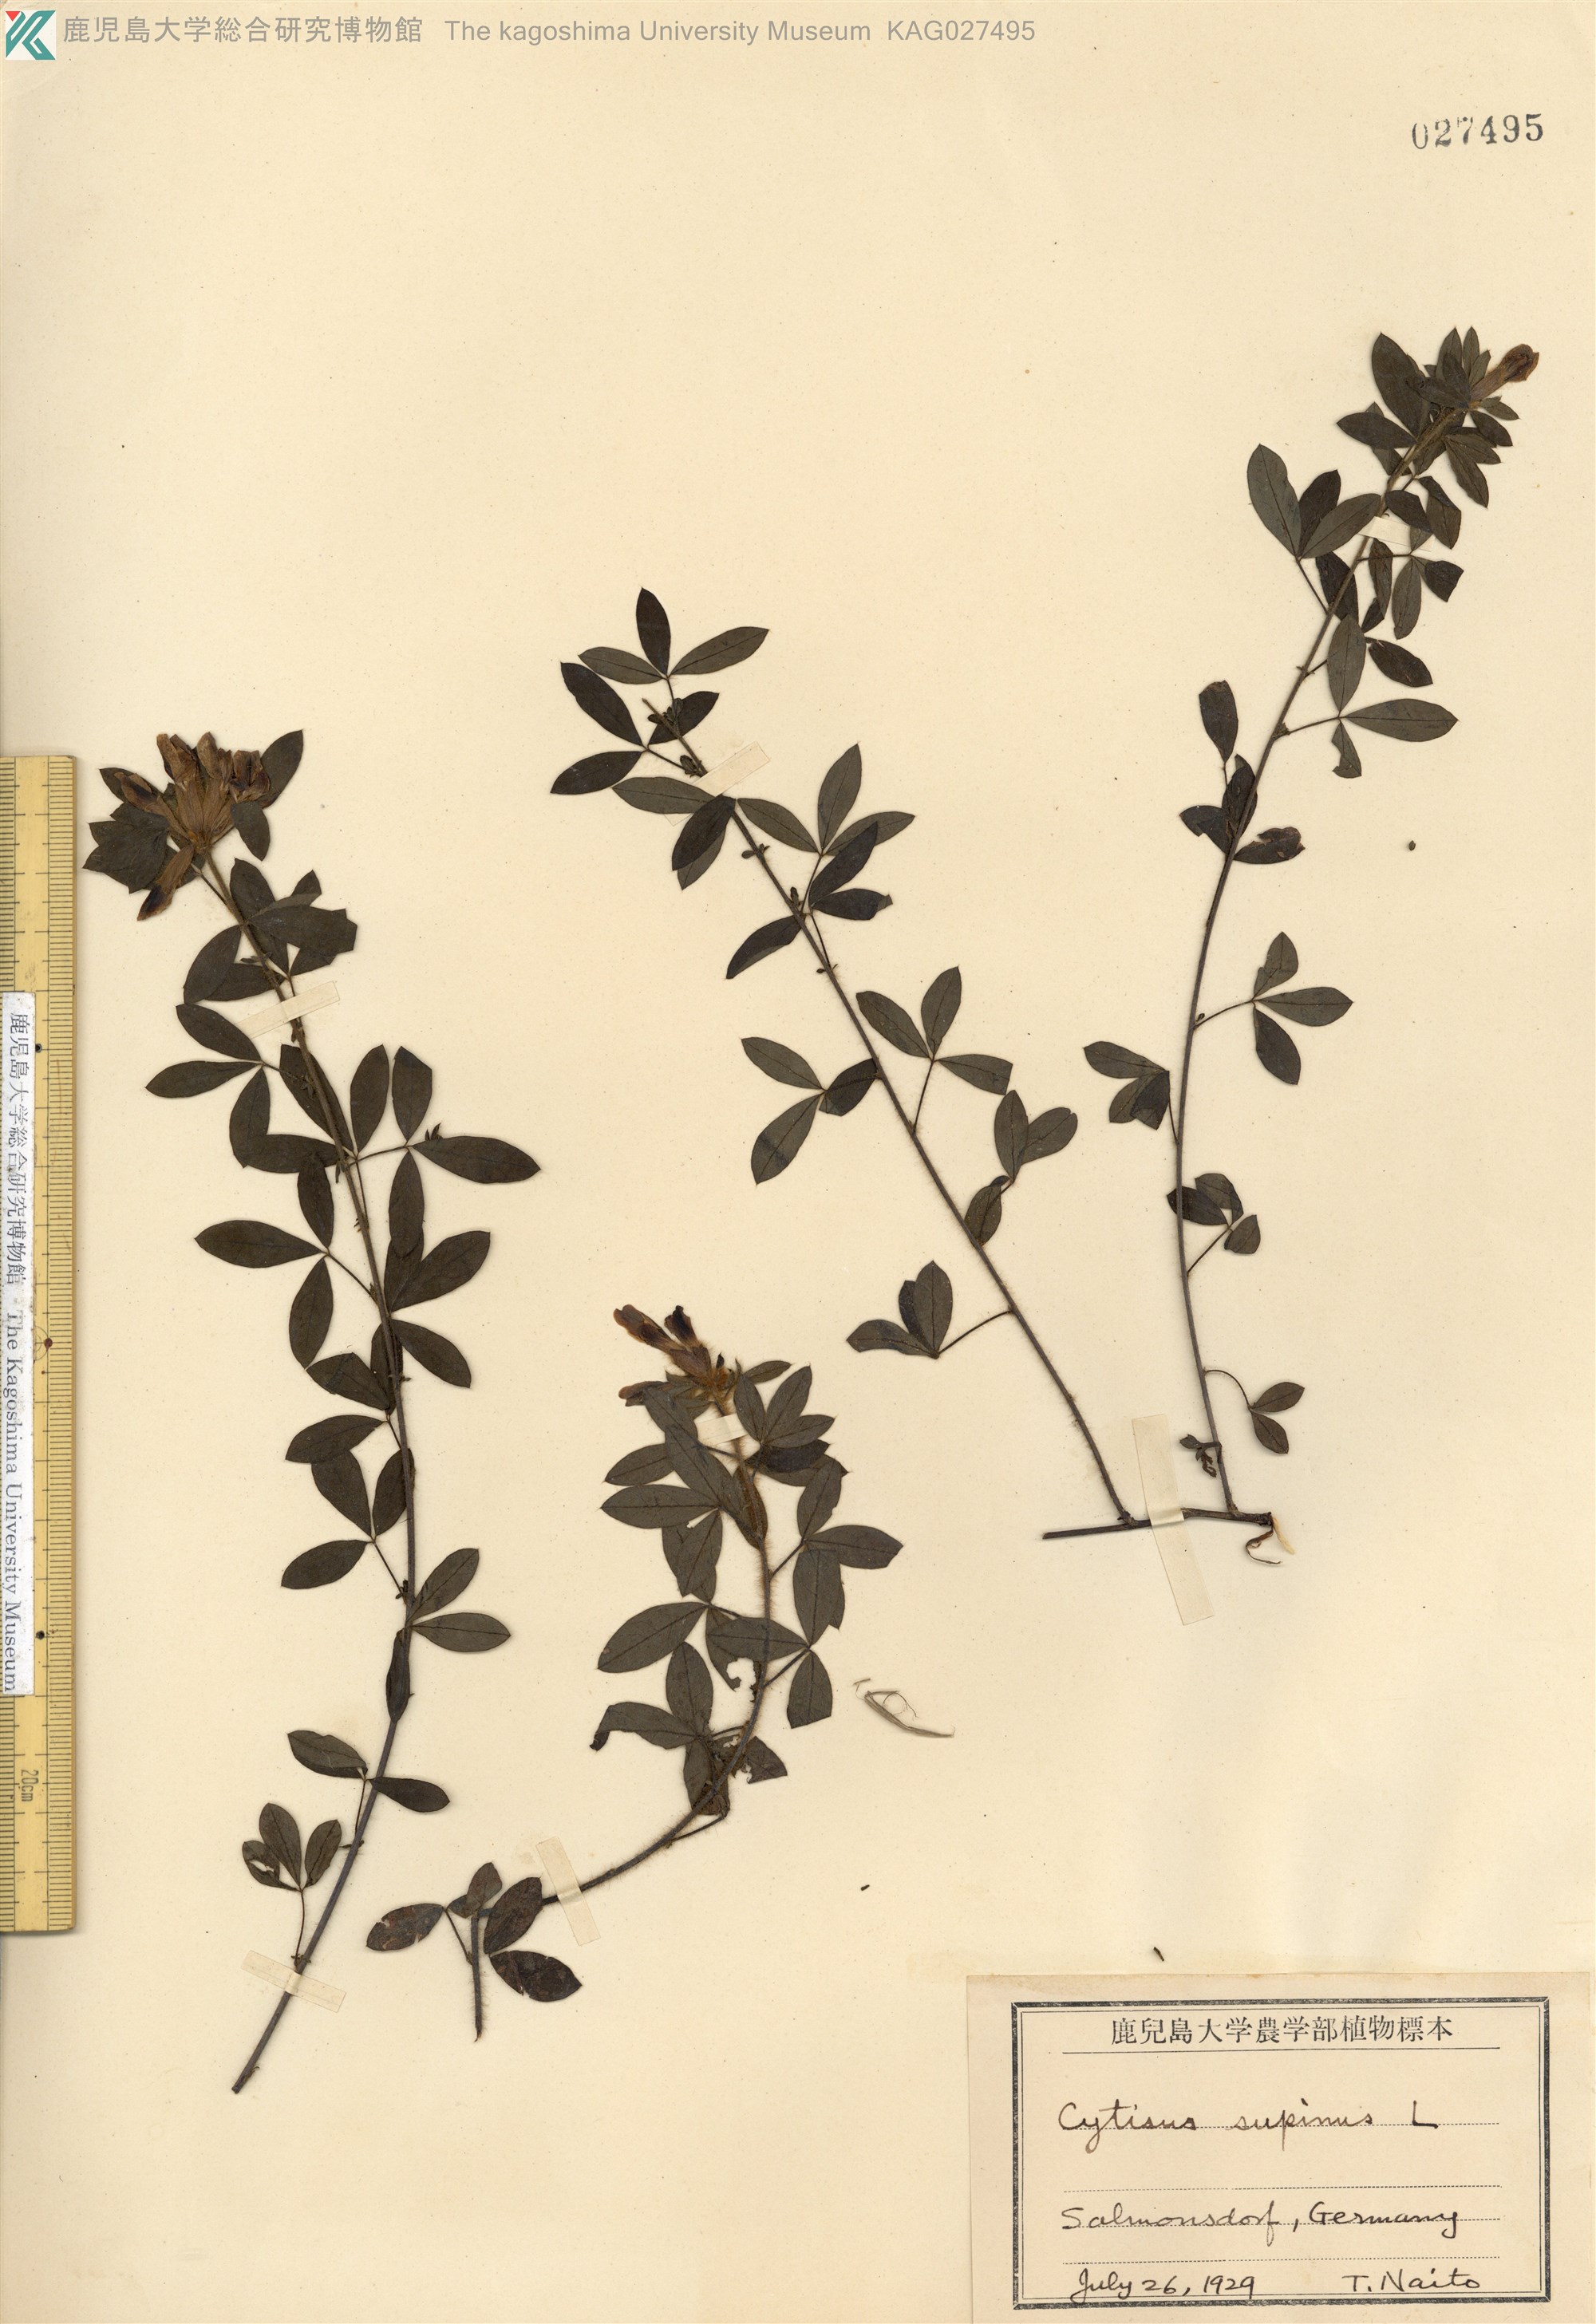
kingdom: Plantae
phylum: Tracheophyta
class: Magnoliopsida
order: Fabales
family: Fabaceae
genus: Chamaecytisus
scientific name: Chamaecytisus supinus
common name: Clustered broom
